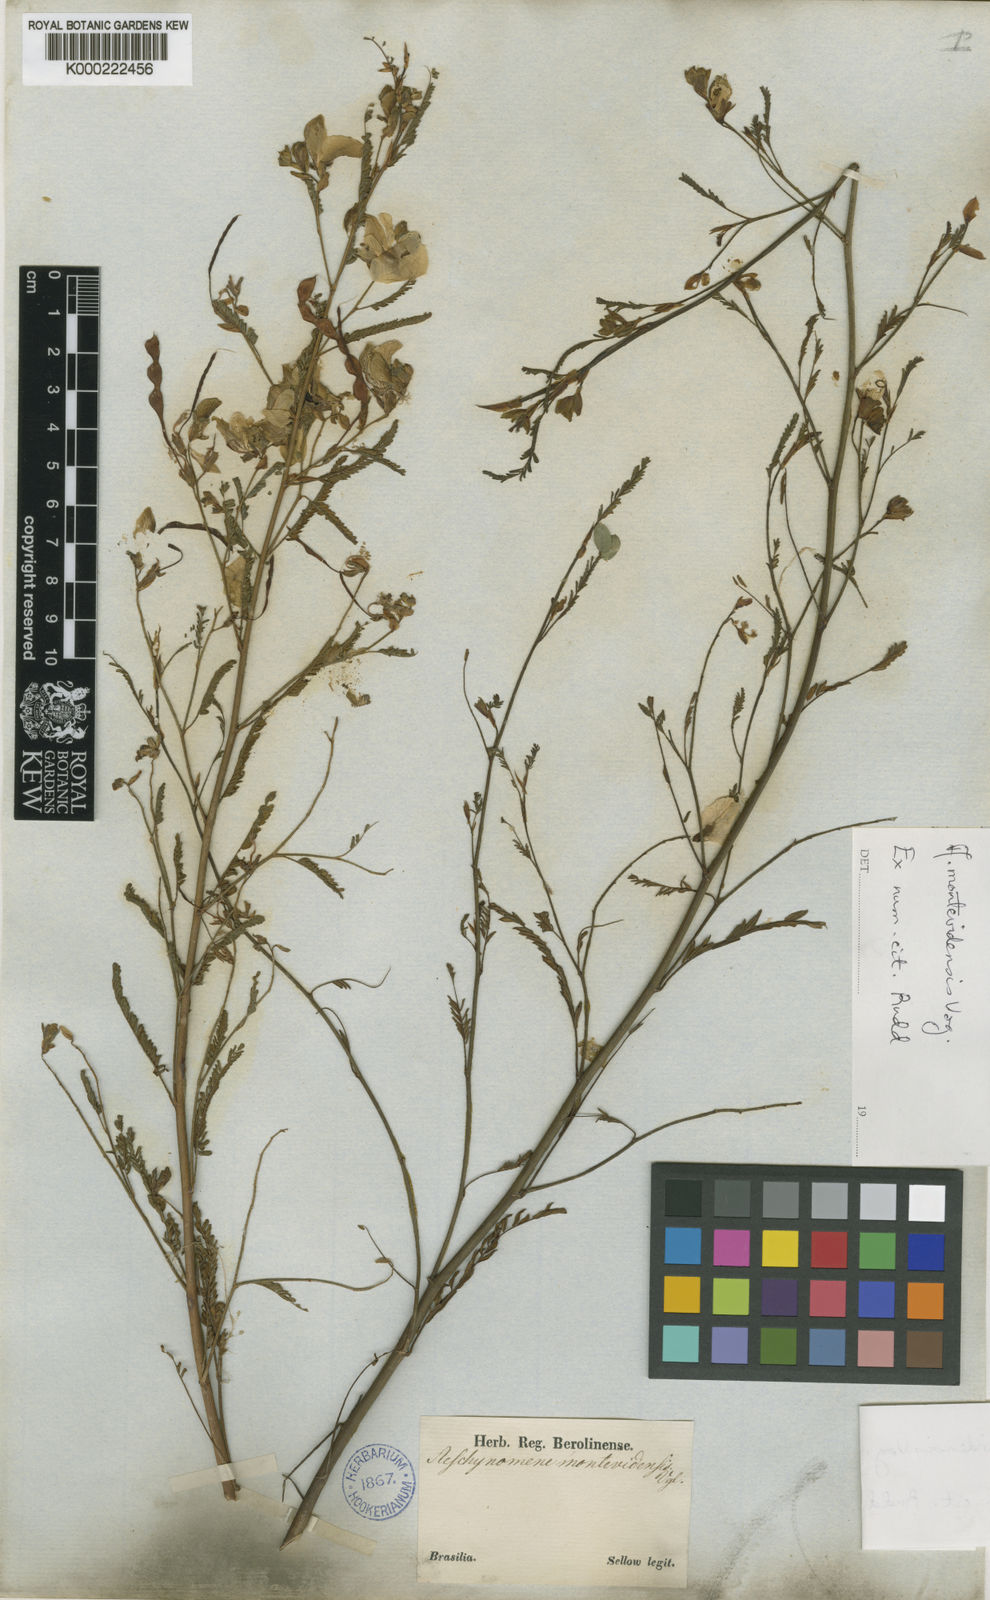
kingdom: Plantae
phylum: Tracheophyta
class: Magnoliopsida
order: Fabales
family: Fabaceae
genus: Aeschynomene
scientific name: Aeschynomene montevidensis
